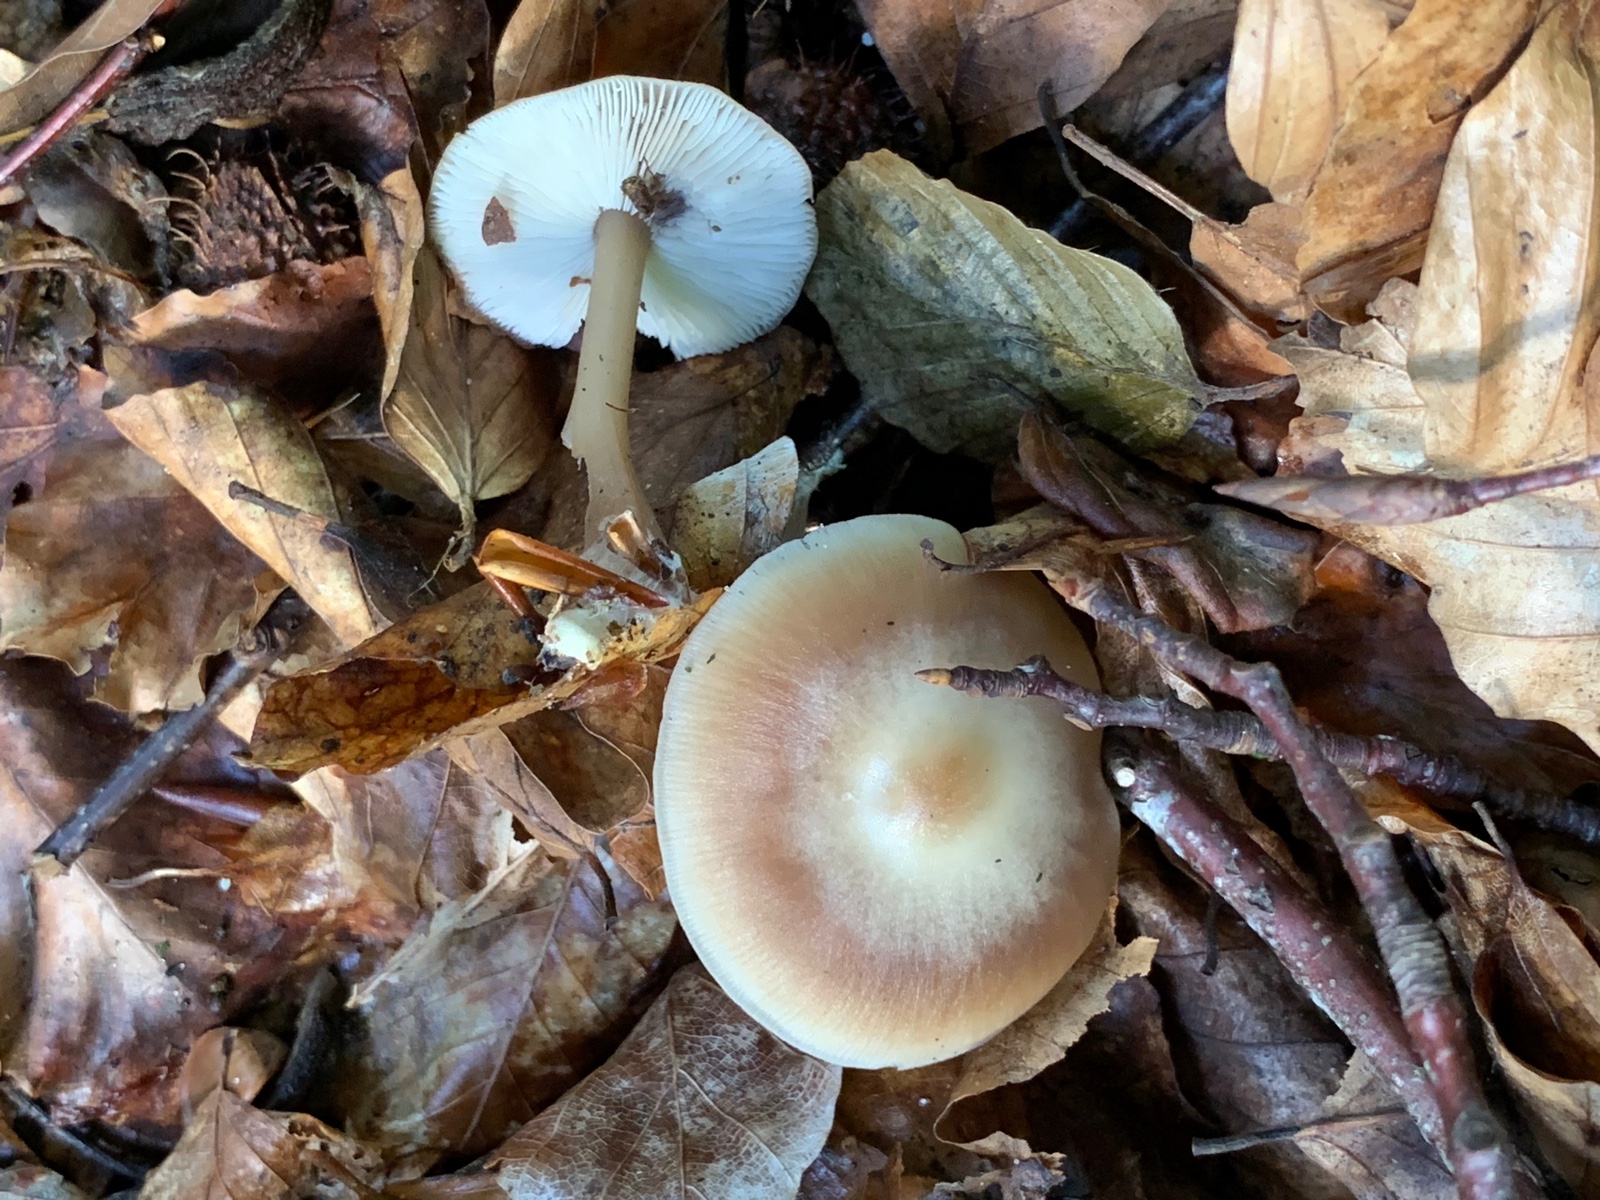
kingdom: Fungi
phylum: Basidiomycota
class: Agaricomycetes
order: Agaricales
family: Omphalotaceae
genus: Rhodocollybia
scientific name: Rhodocollybia asema
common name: horngrå fladhat
